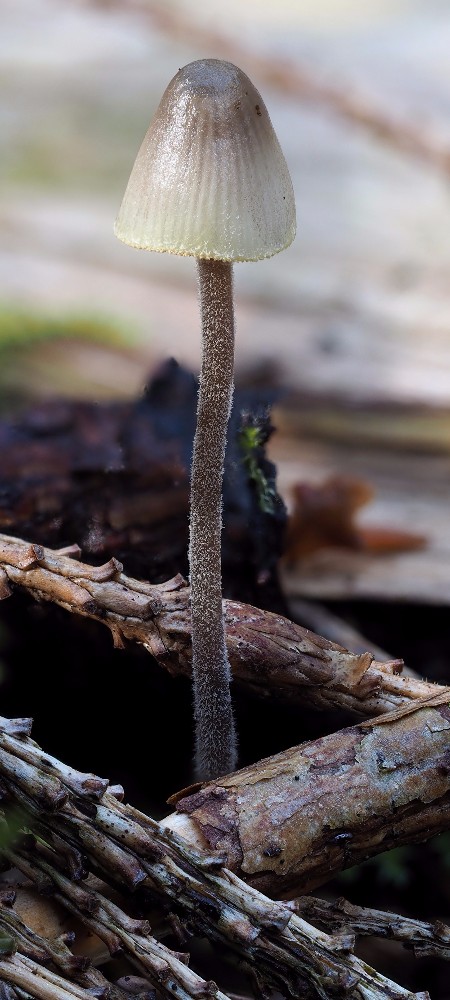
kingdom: Fungi
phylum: Basidiomycota
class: Agaricomycetes
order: Agaricales
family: Mycenaceae
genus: Mycena
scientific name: Mycena amicta
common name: iris-huesvamp
